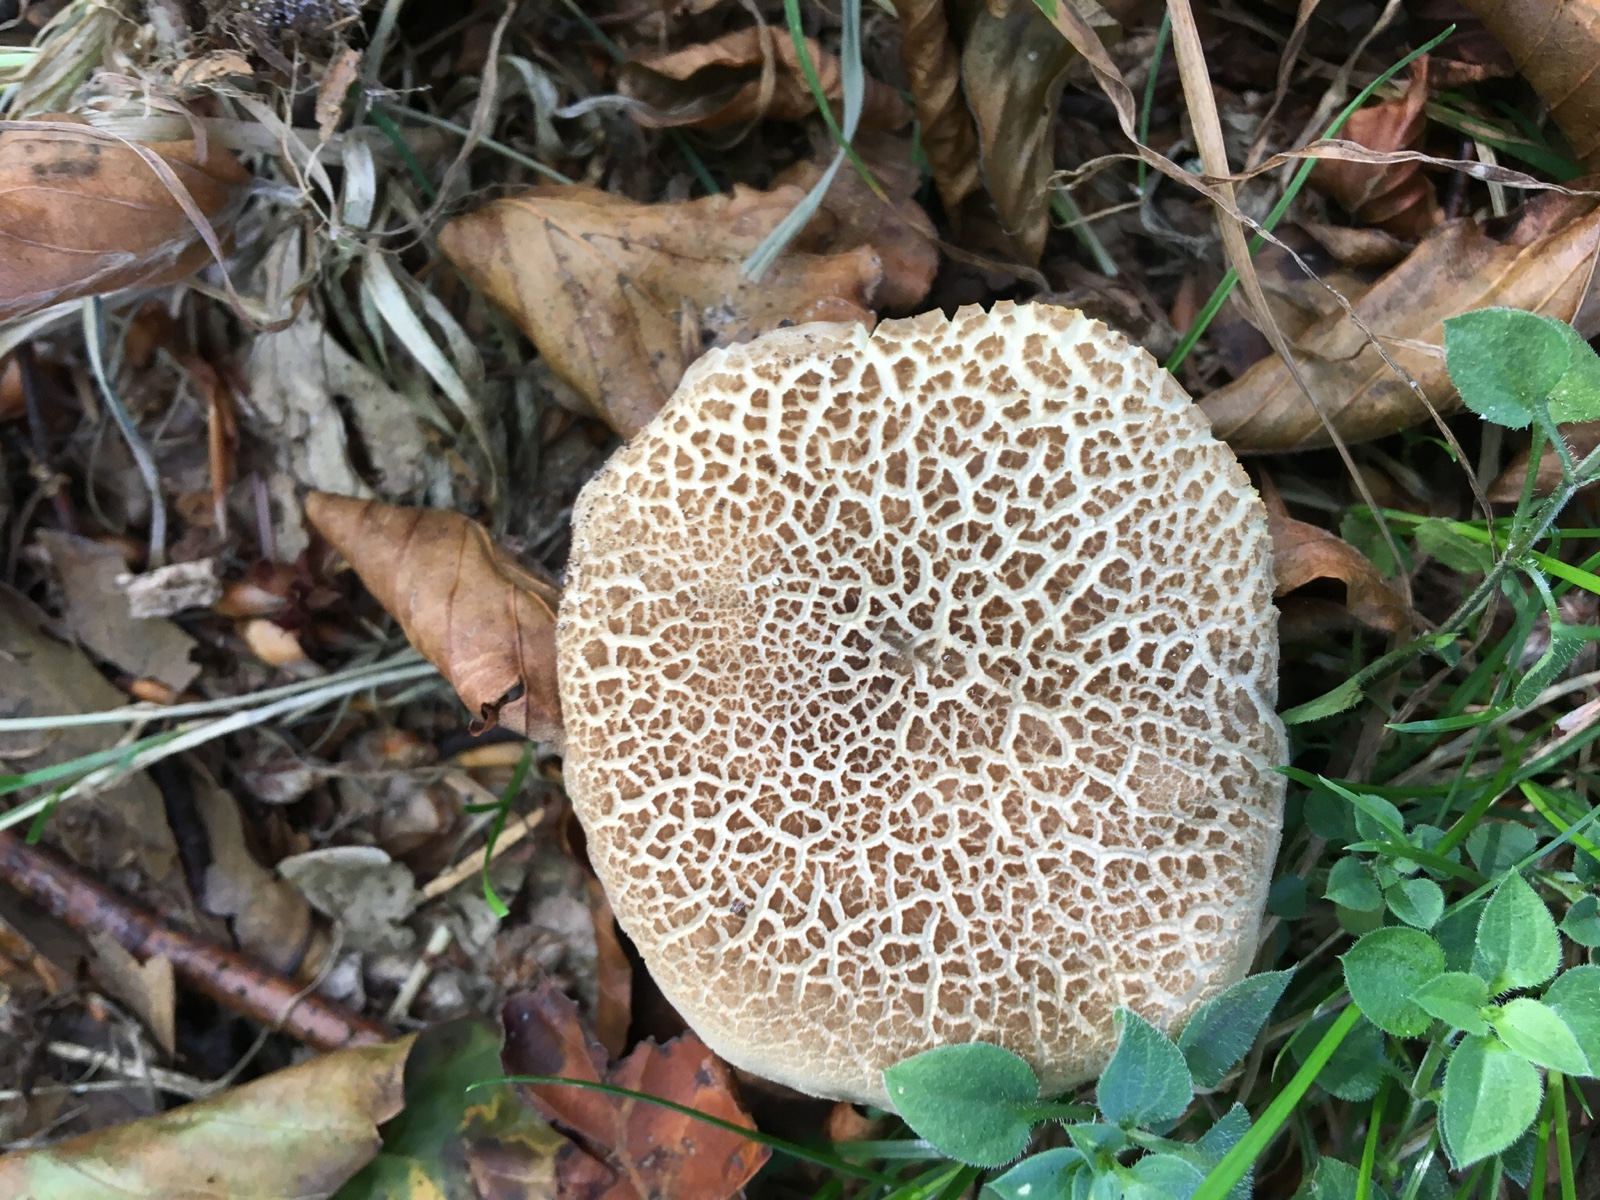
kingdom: Fungi
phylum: Basidiomycota
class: Agaricomycetes
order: Boletales
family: Boletaceae
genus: Xerocomellus
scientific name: Xerocomellus porosporus
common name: hvidsprukken rørhat
